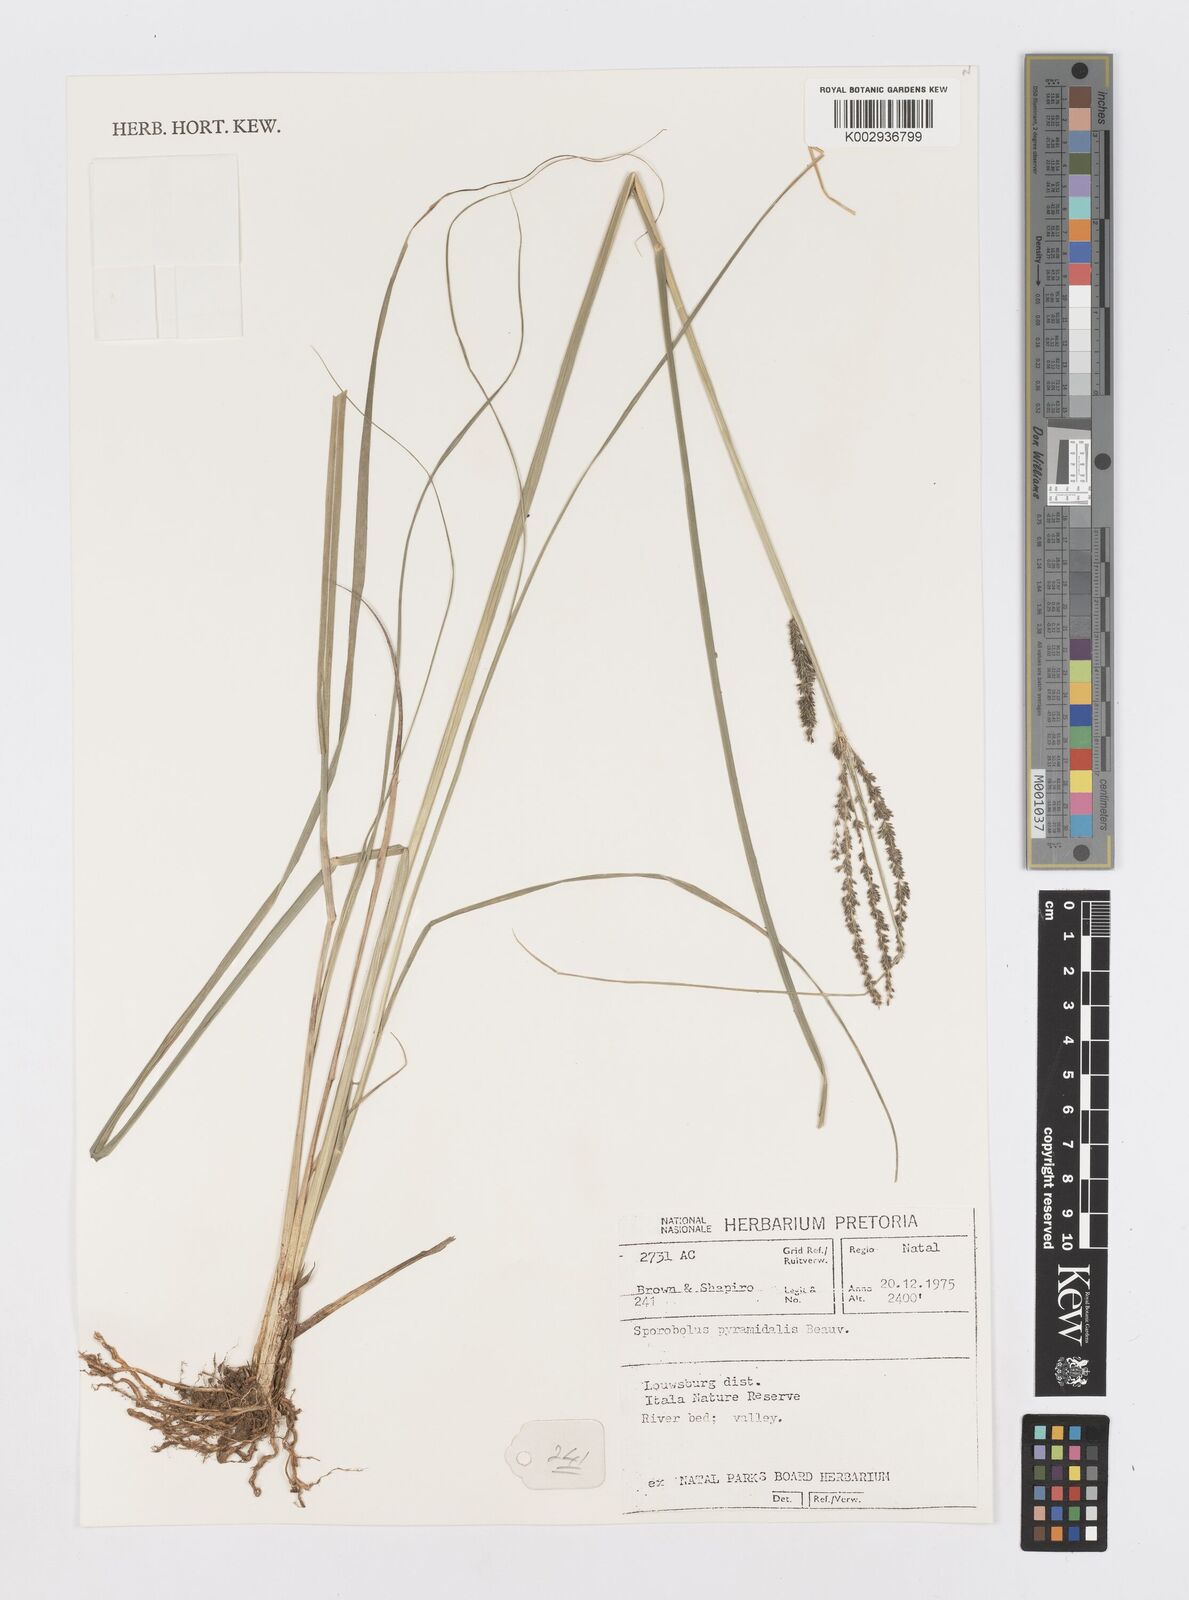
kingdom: Plantae
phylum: Tracheophyta
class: Liliopsida
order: Poales
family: Poaceae
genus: Sporobolus
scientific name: Sporobolus pyramidalis
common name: West indian dropseed
